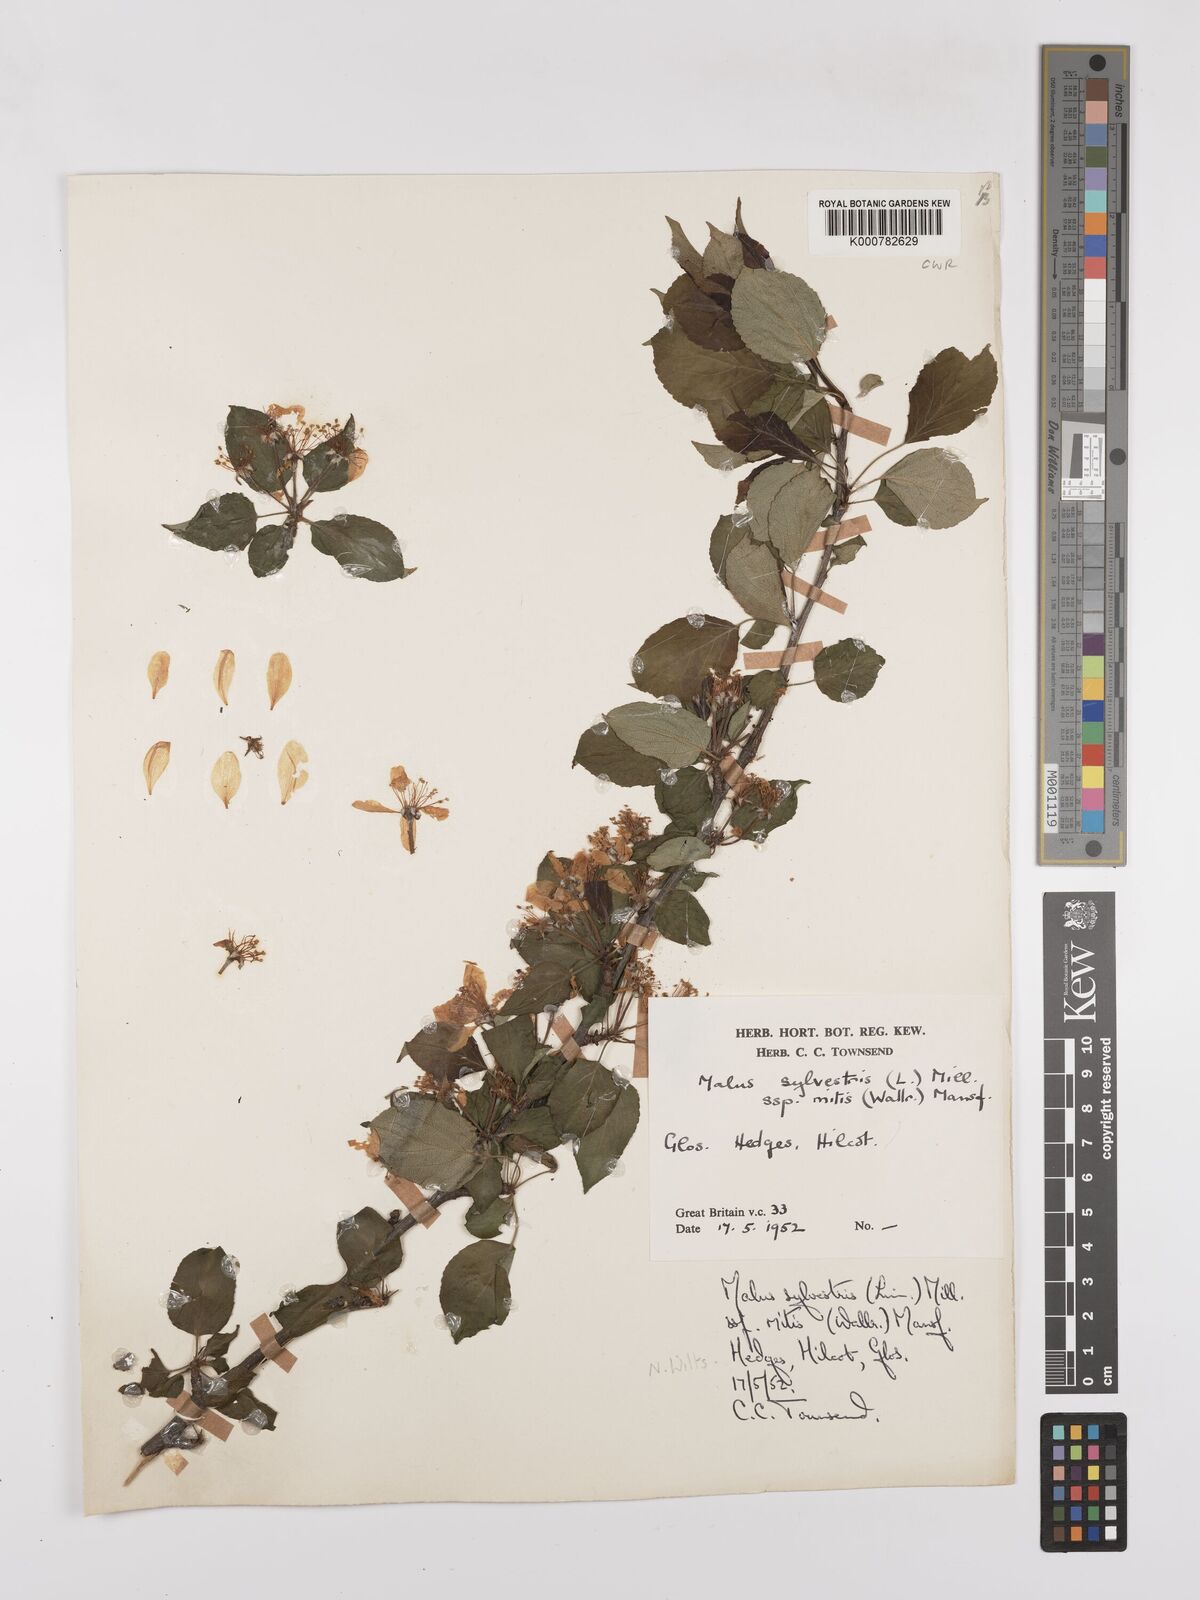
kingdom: Plantae
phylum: Tracheophyta
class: Magnoliopsida
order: Rosales
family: Rosaceae
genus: Malus
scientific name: Malus sylvestris
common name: Crab apple
